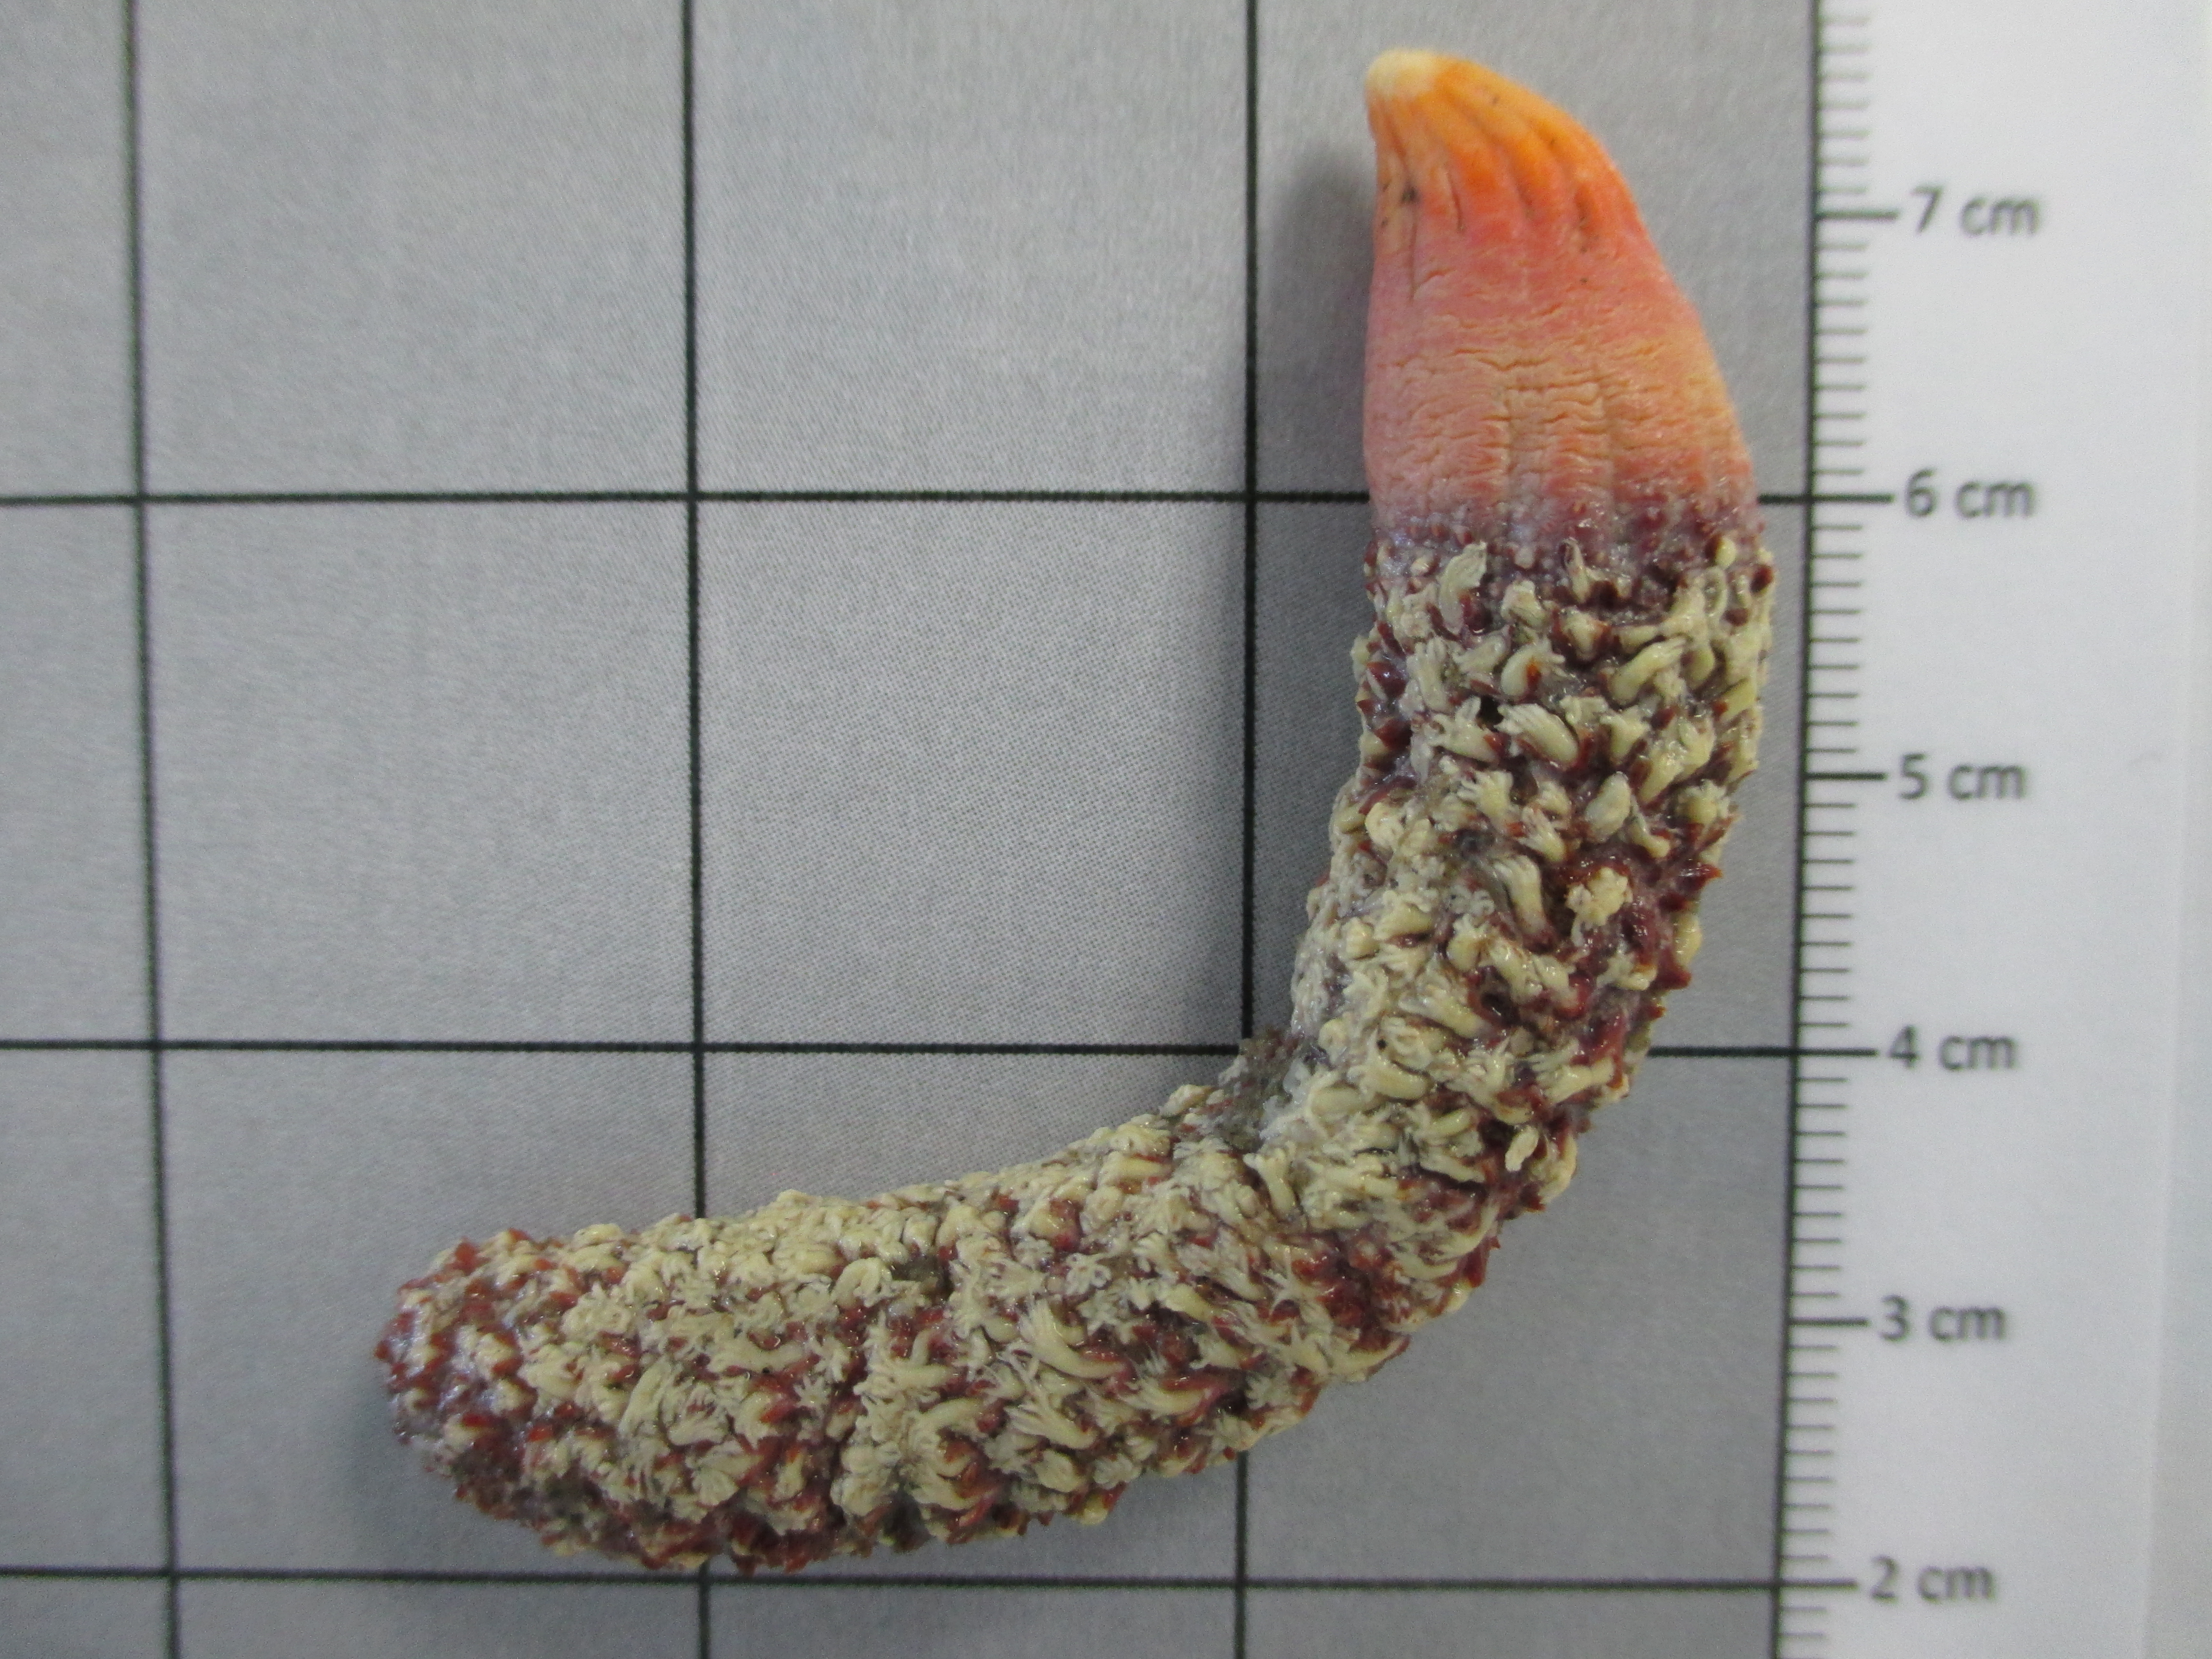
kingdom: Animalia
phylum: Cnidaria
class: Anthozoa
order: Scleralcyonacea
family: Echinoptilidae
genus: Actinoptilum
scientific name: Actinoptilum molle
